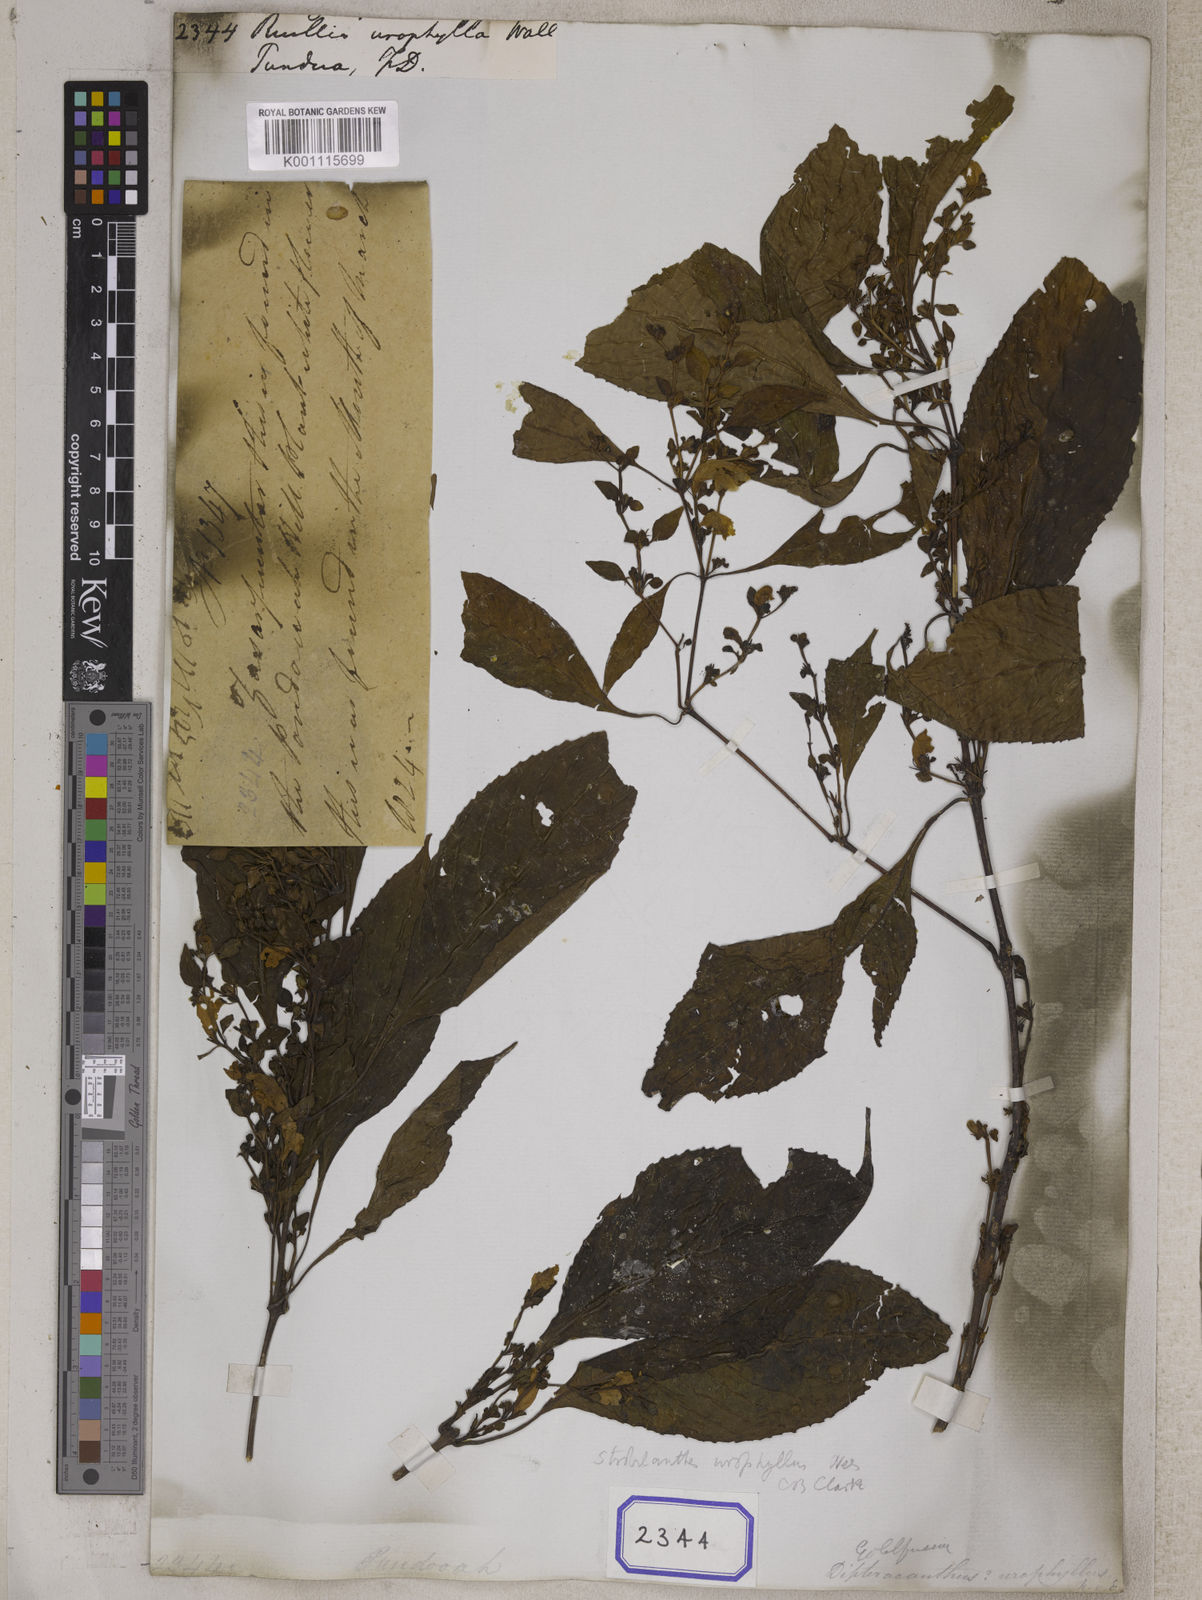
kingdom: Plantae
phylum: Tracheophyta
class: Magnoliopsida
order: Lamiales
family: Acanthaceae
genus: Strobilanthes
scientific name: Strobilanthes urophylla
